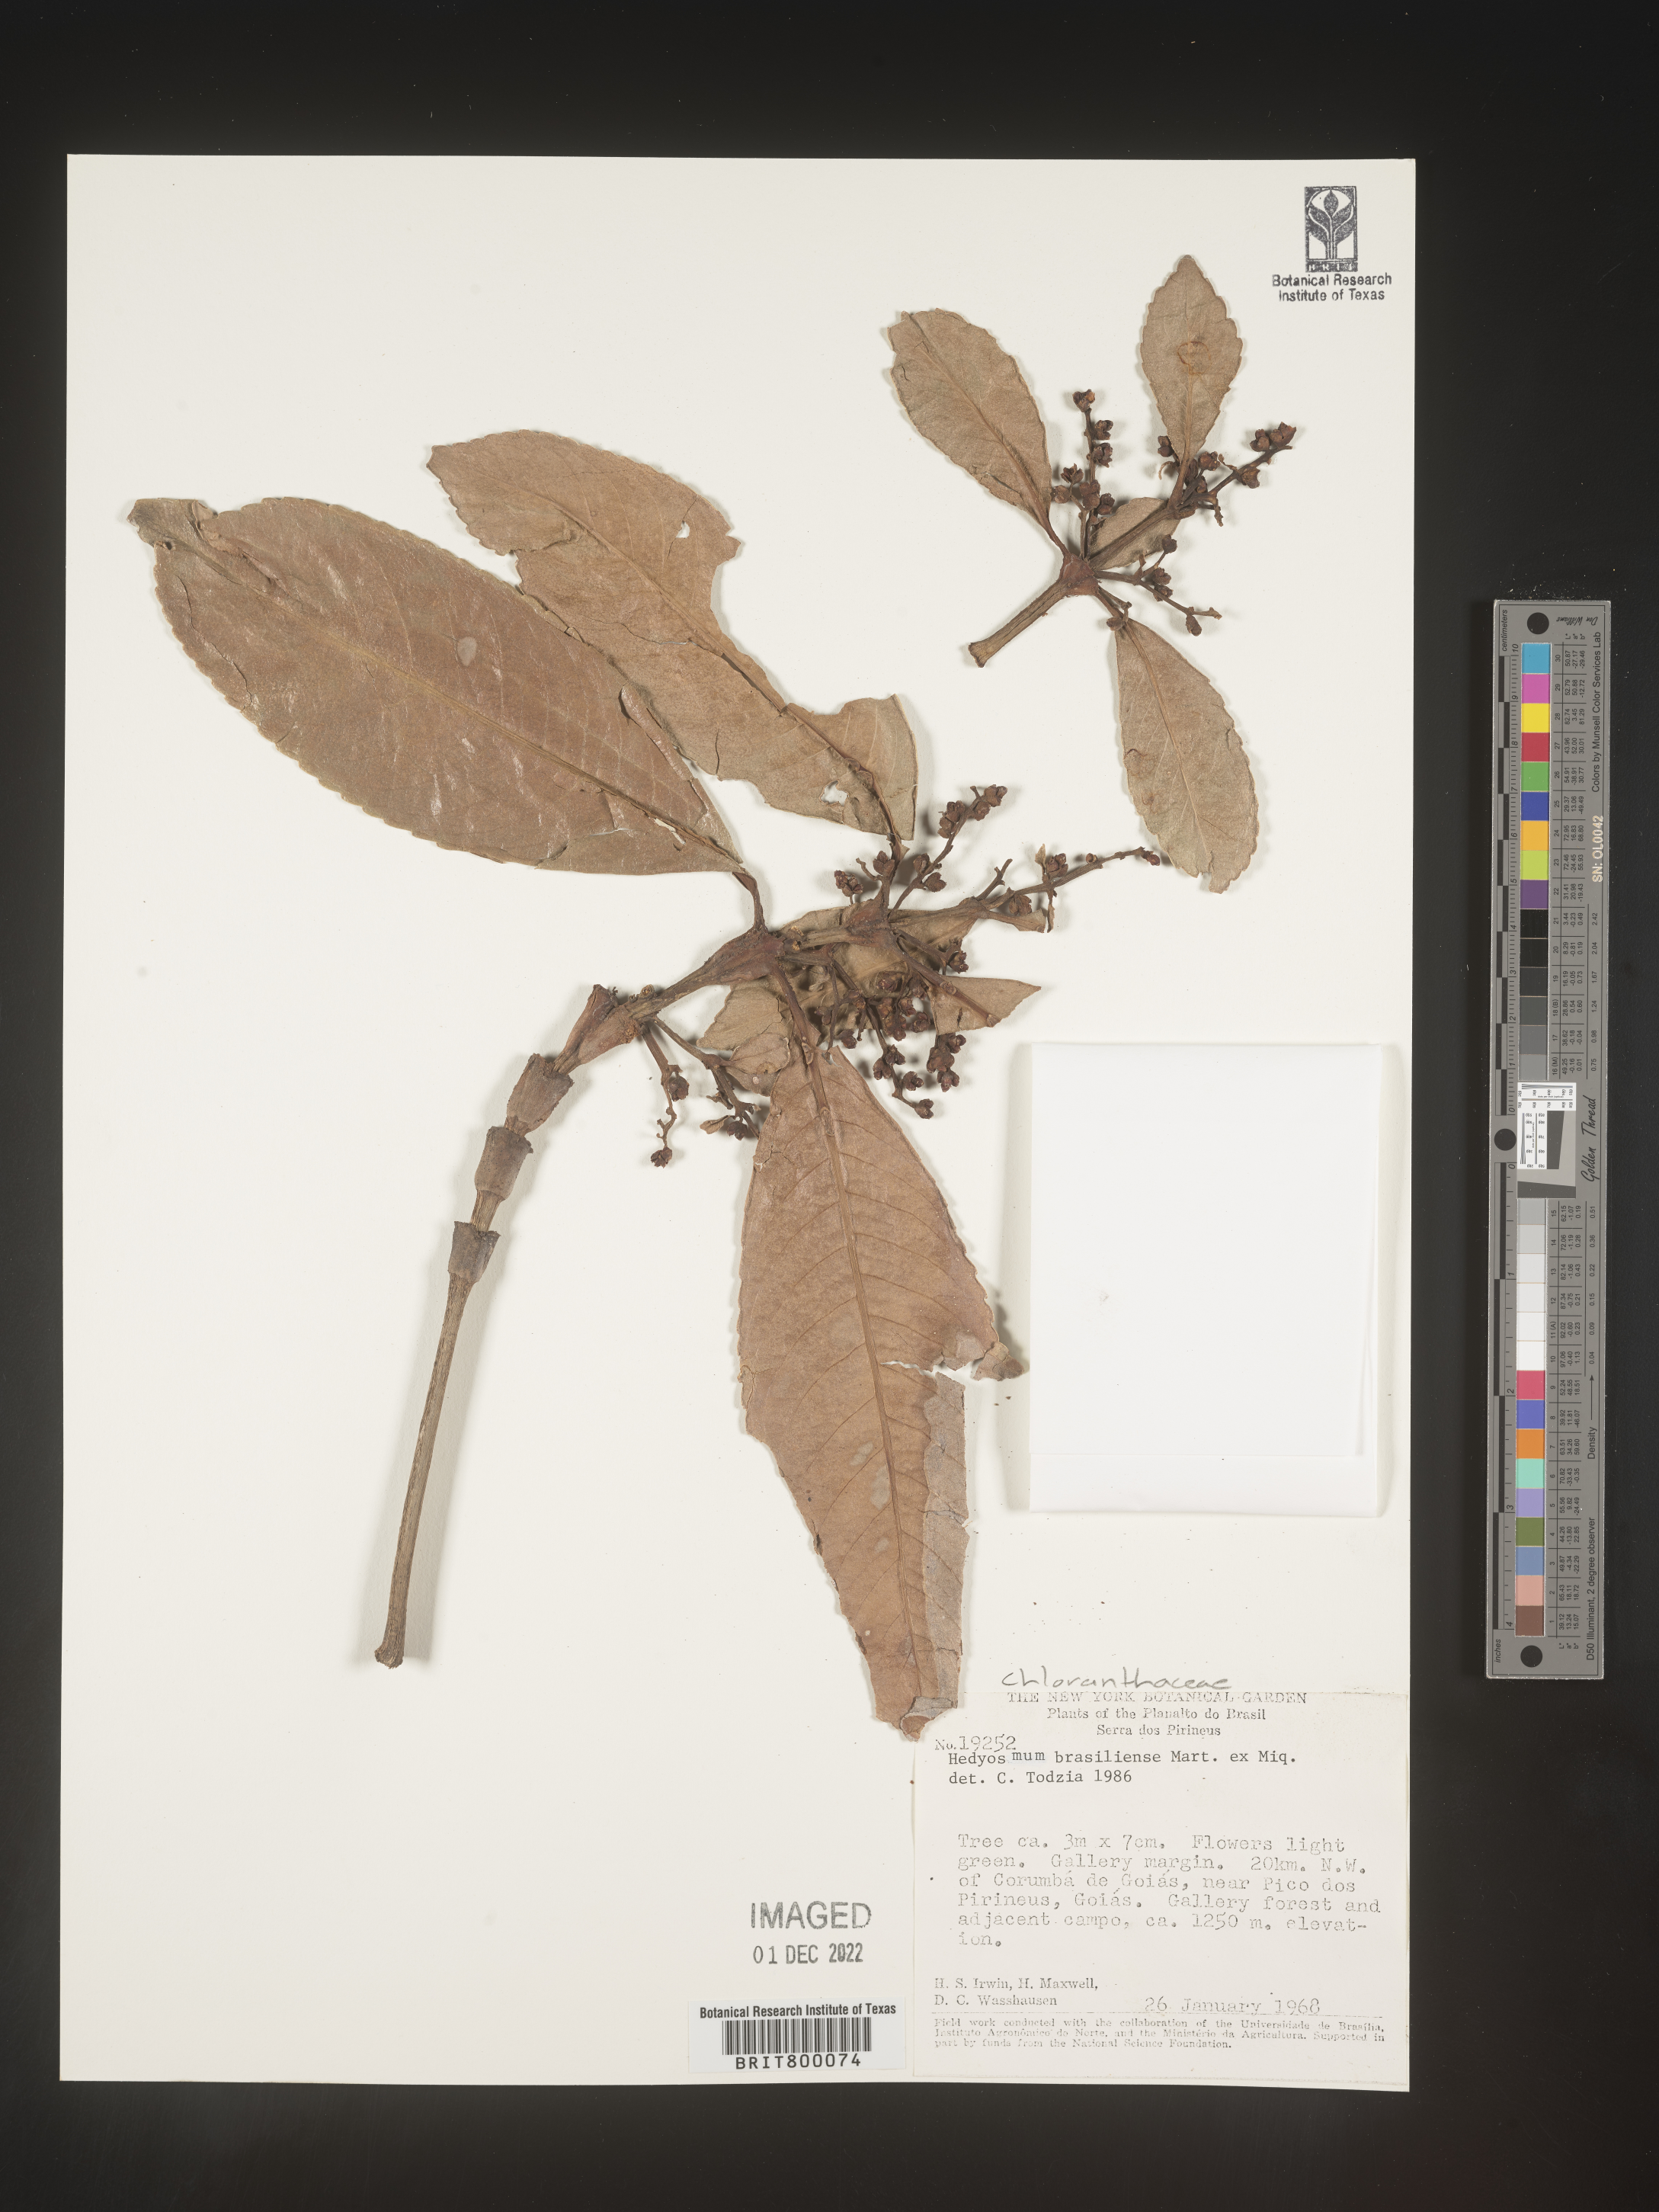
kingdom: Plantae
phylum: Tracheophyta
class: Magnoliopsida
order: Chloranthales
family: Chloranthaceae
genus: Hedyosmum
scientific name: Hedyosmum
